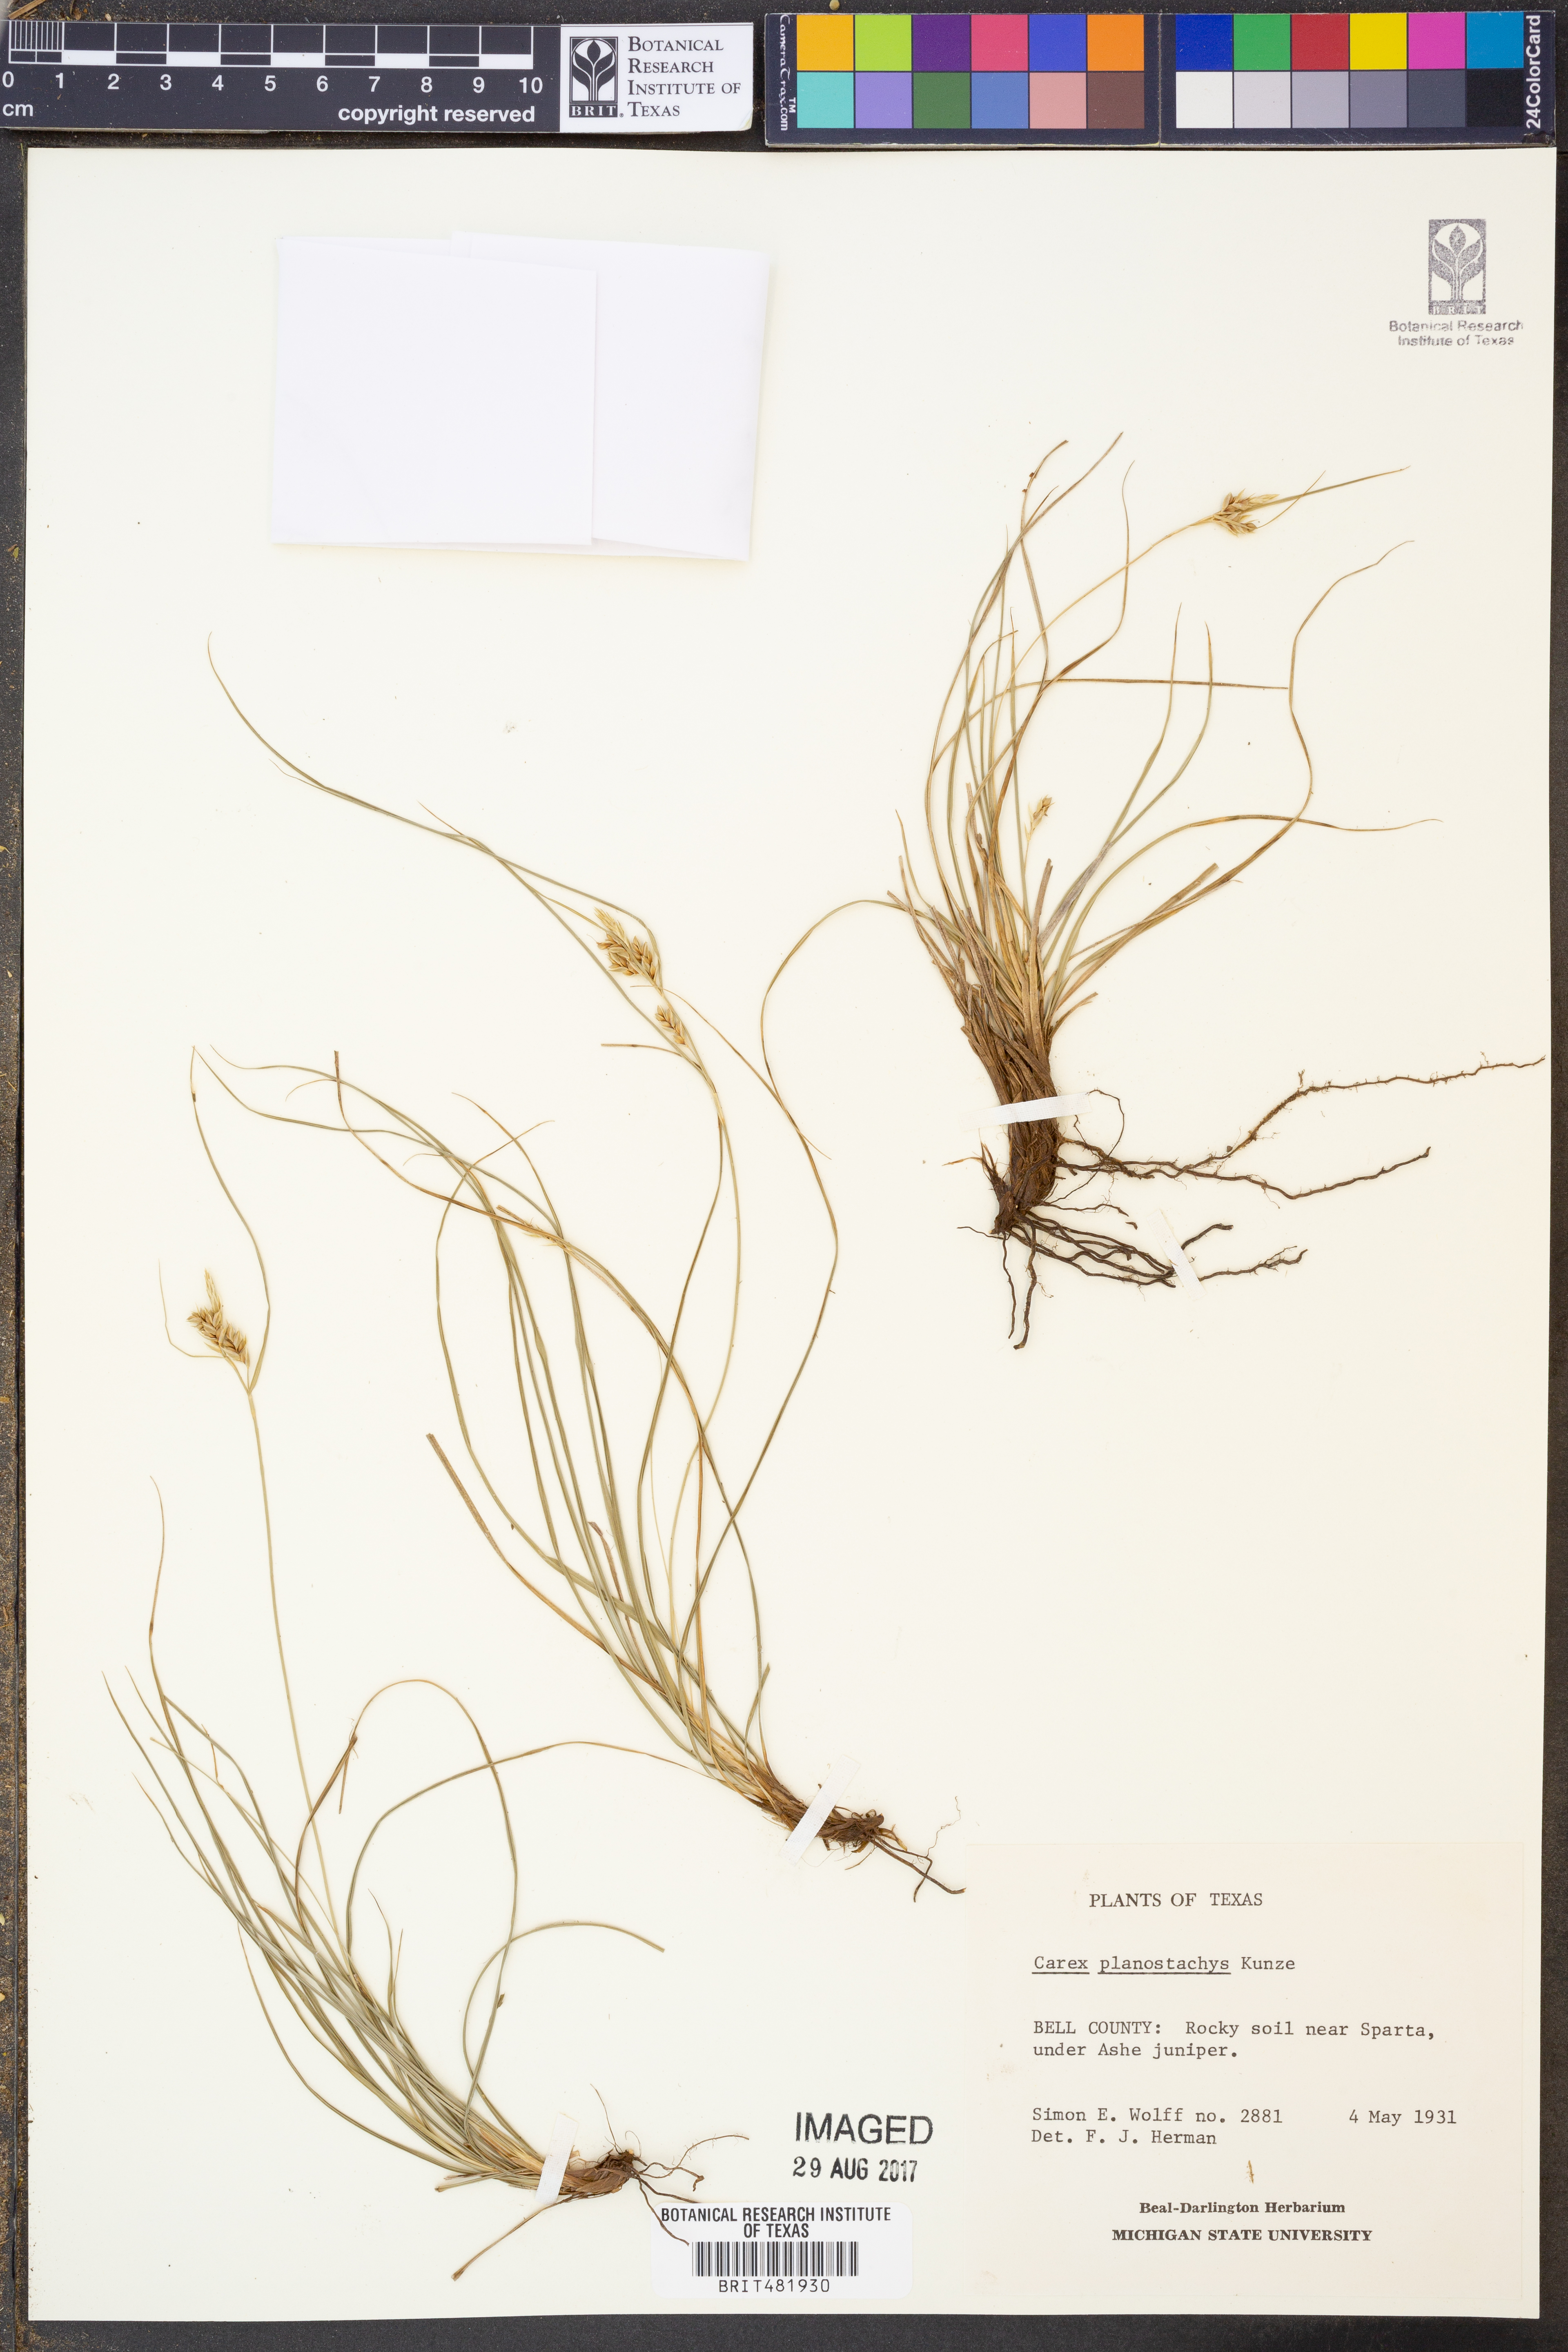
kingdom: Plantae
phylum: Tracheophyta
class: Liliopsida
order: Poales
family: Cyperaceae
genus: Carex
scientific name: Carex planostachys
